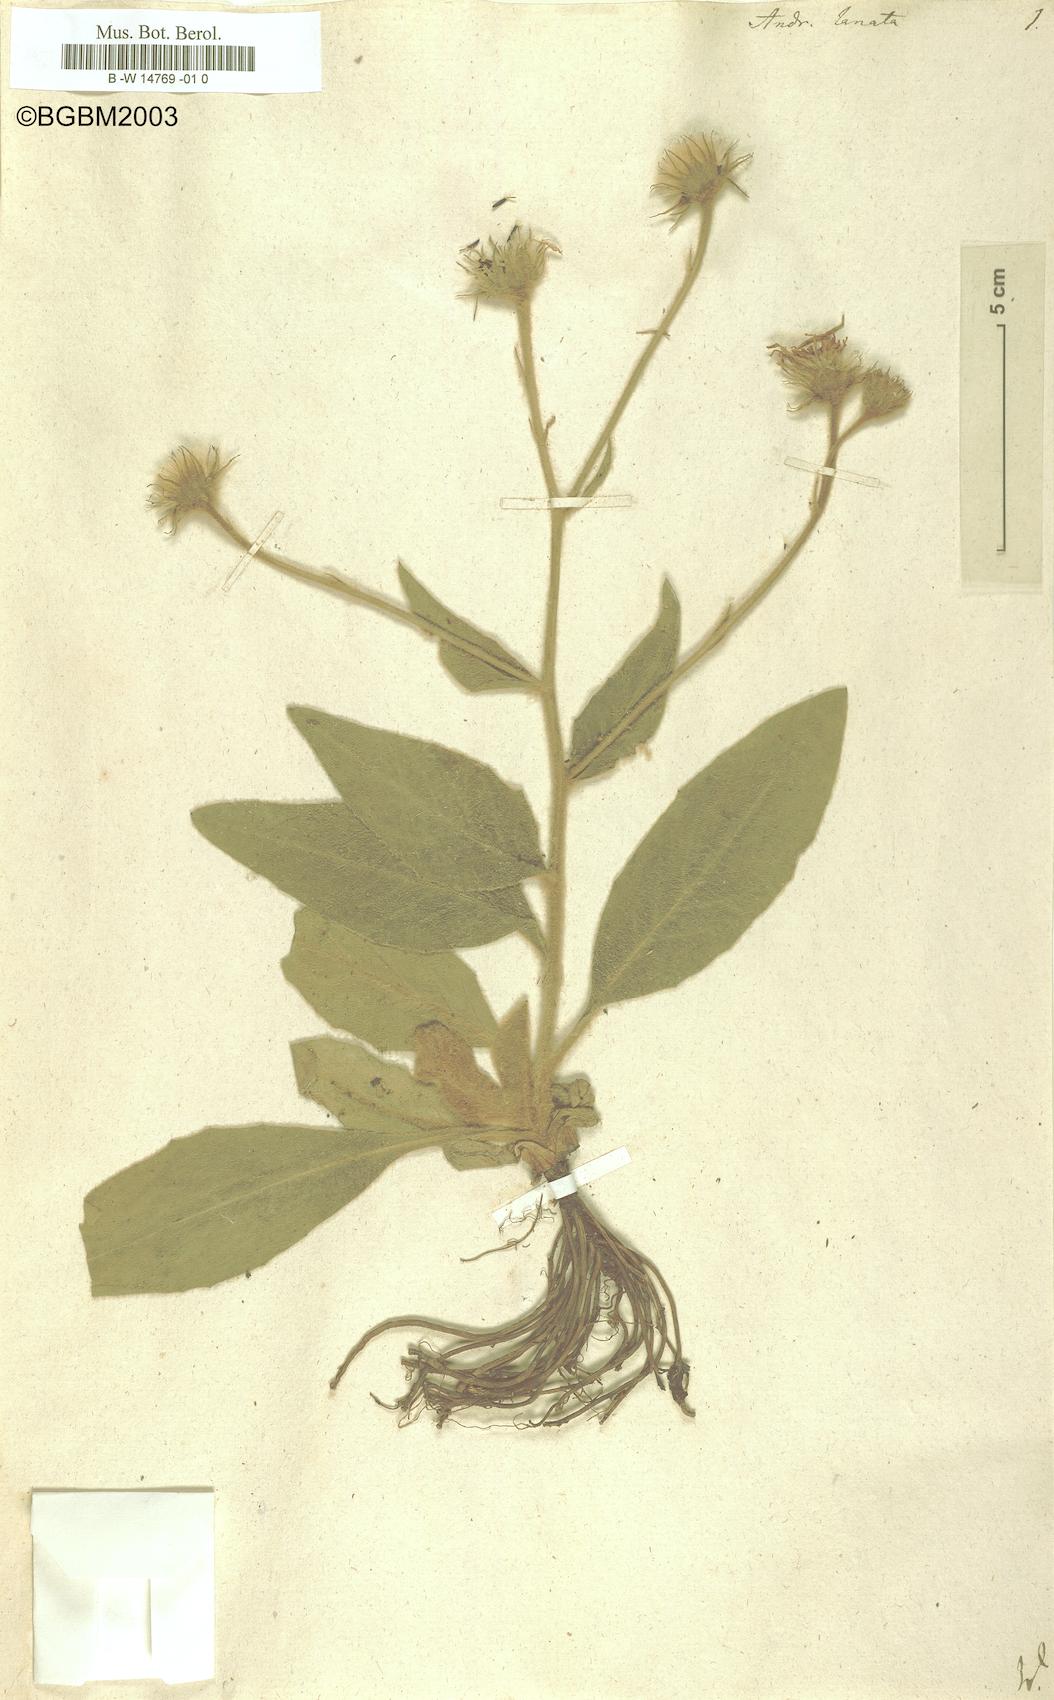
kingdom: Plantae
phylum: Tracheophyta
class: Magnoliopsida
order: Asterales
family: Asteraceae
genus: Andryala
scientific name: Andryala lanata
